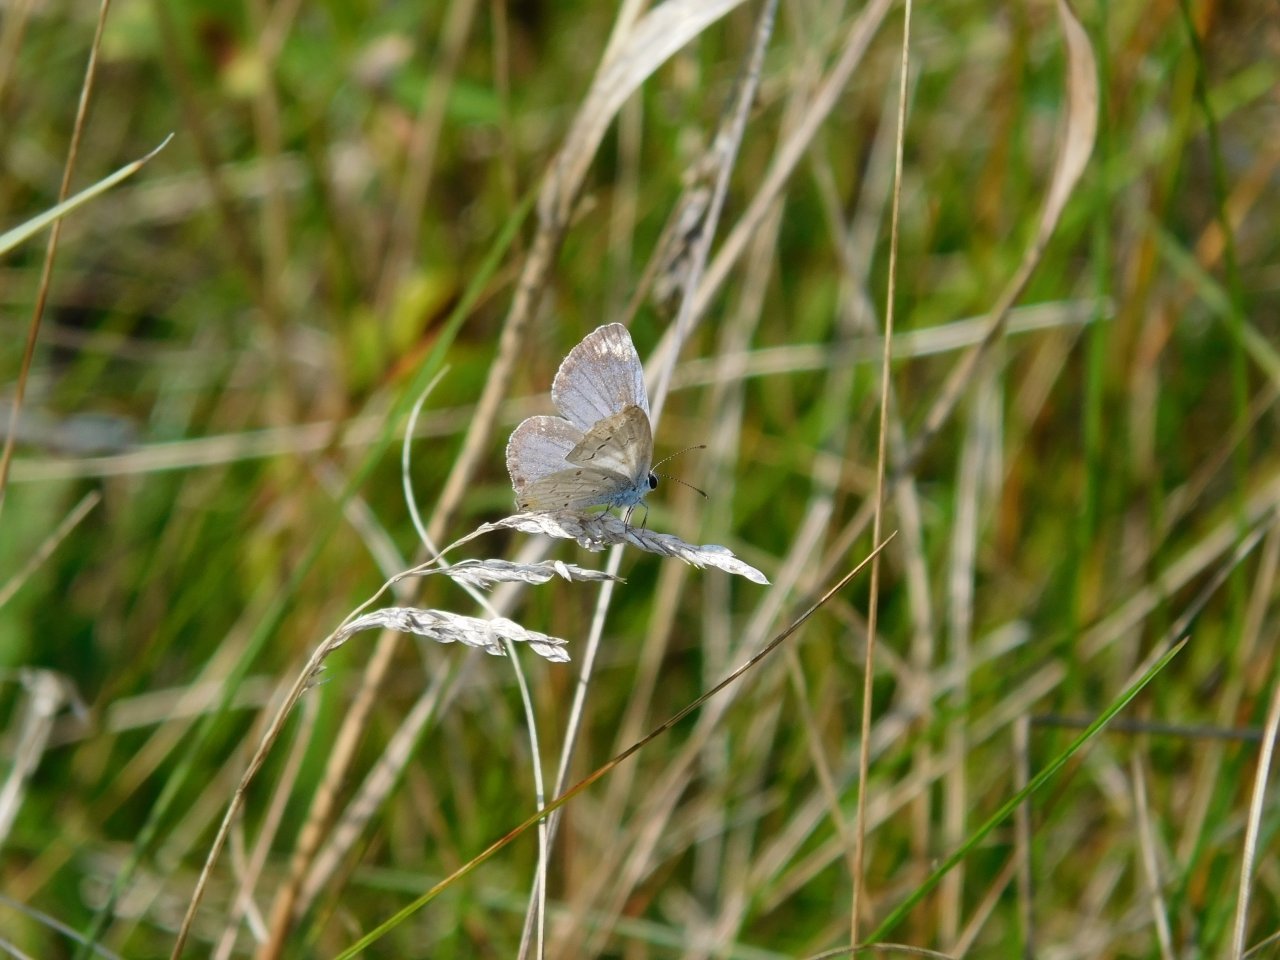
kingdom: Animalia
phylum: Arthropoda
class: Insecta
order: Lepidoptera
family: Lycaenidae
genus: Elkalyce
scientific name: Elkalyce comyntas
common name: Eastern Tailed-Blue
